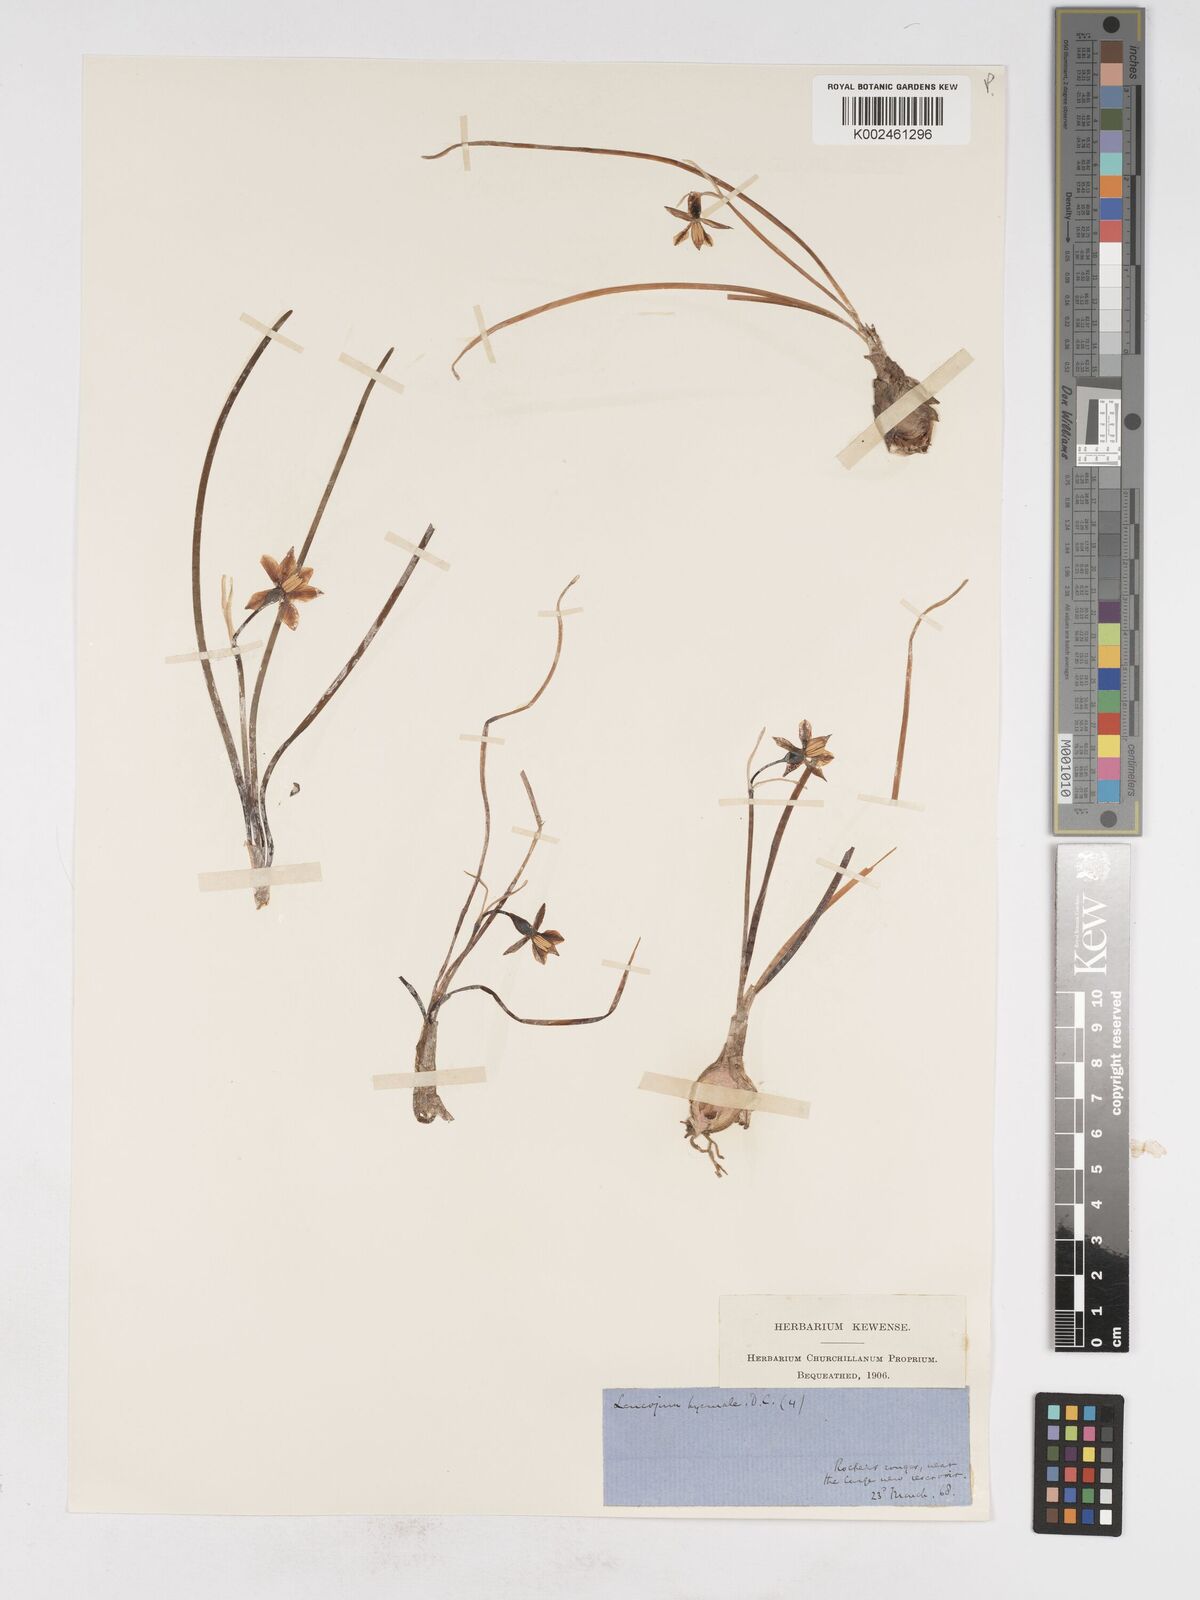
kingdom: Plantae
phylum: Tracheophyta
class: Liliopsida
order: Asparagales
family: Amaryllidaceae
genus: Acis
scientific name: Acis nicaeensis
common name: French snowflake
